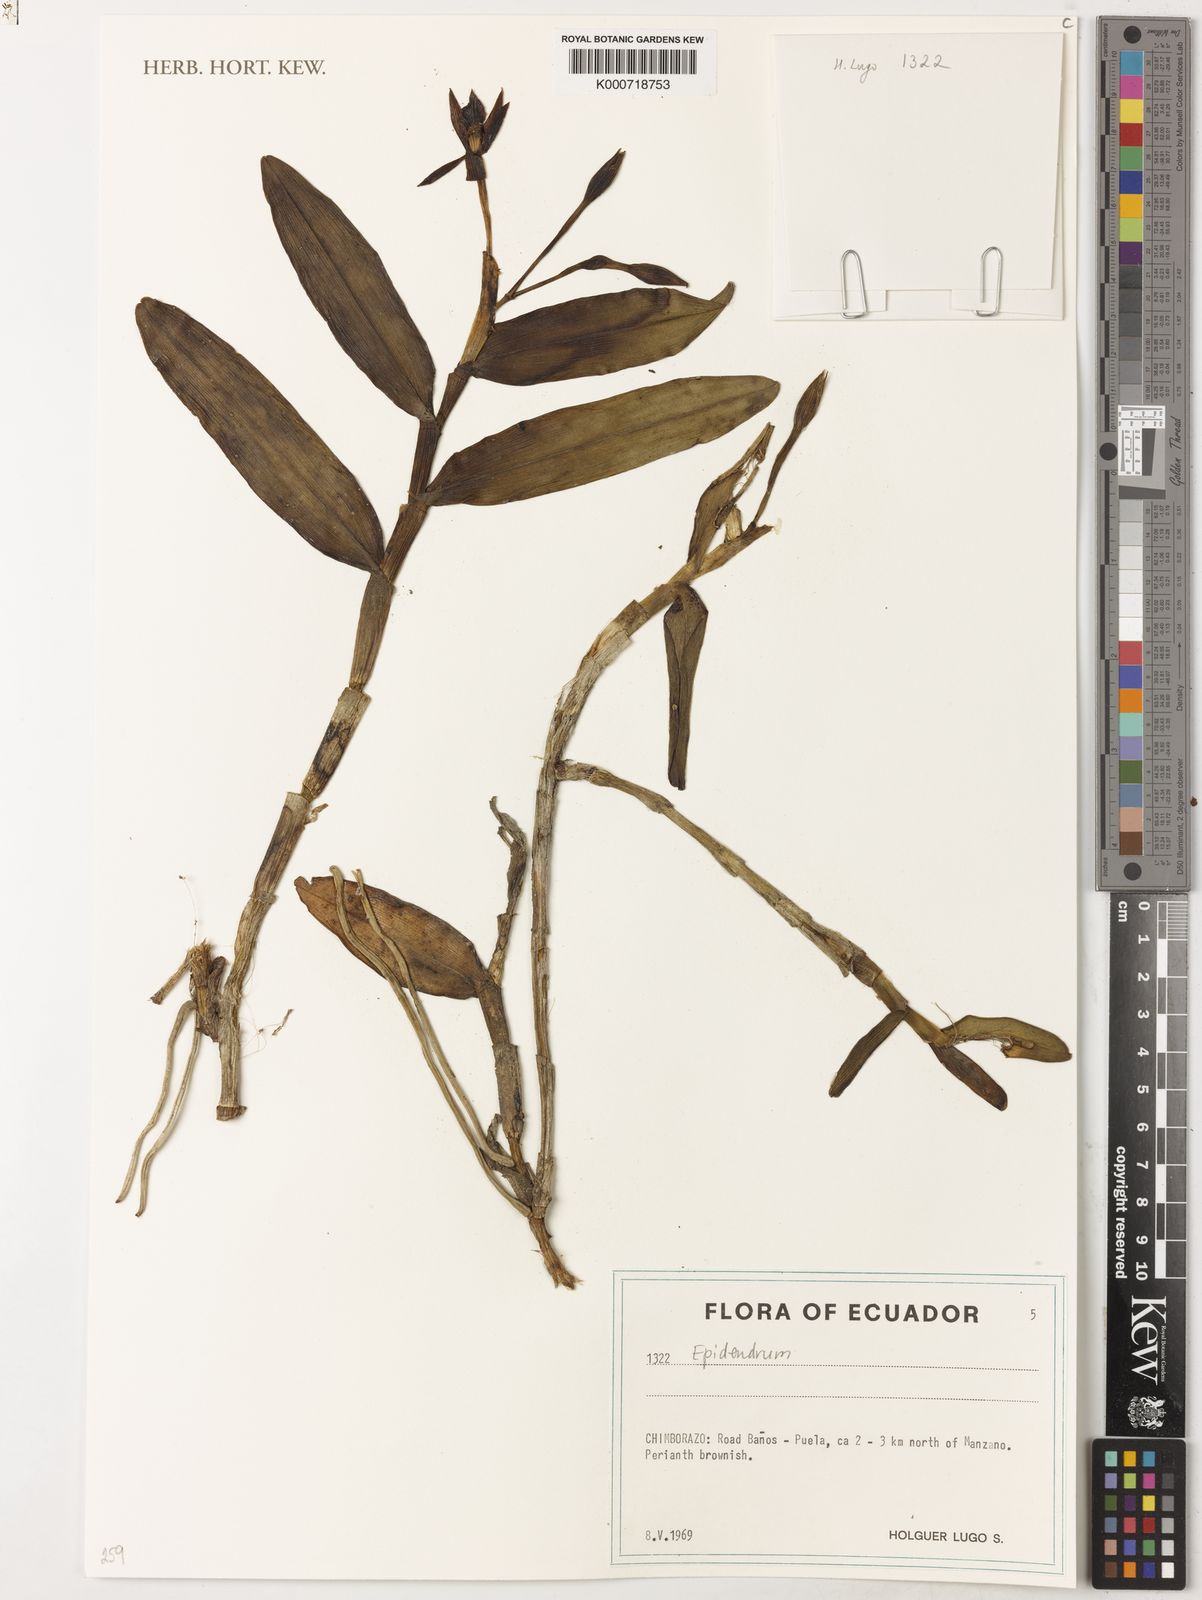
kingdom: Plantae
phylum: Tracheophyta
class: Liliopsida
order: Asparagales
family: Orchidaceae
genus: Epidendrum
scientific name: Epidendrum
